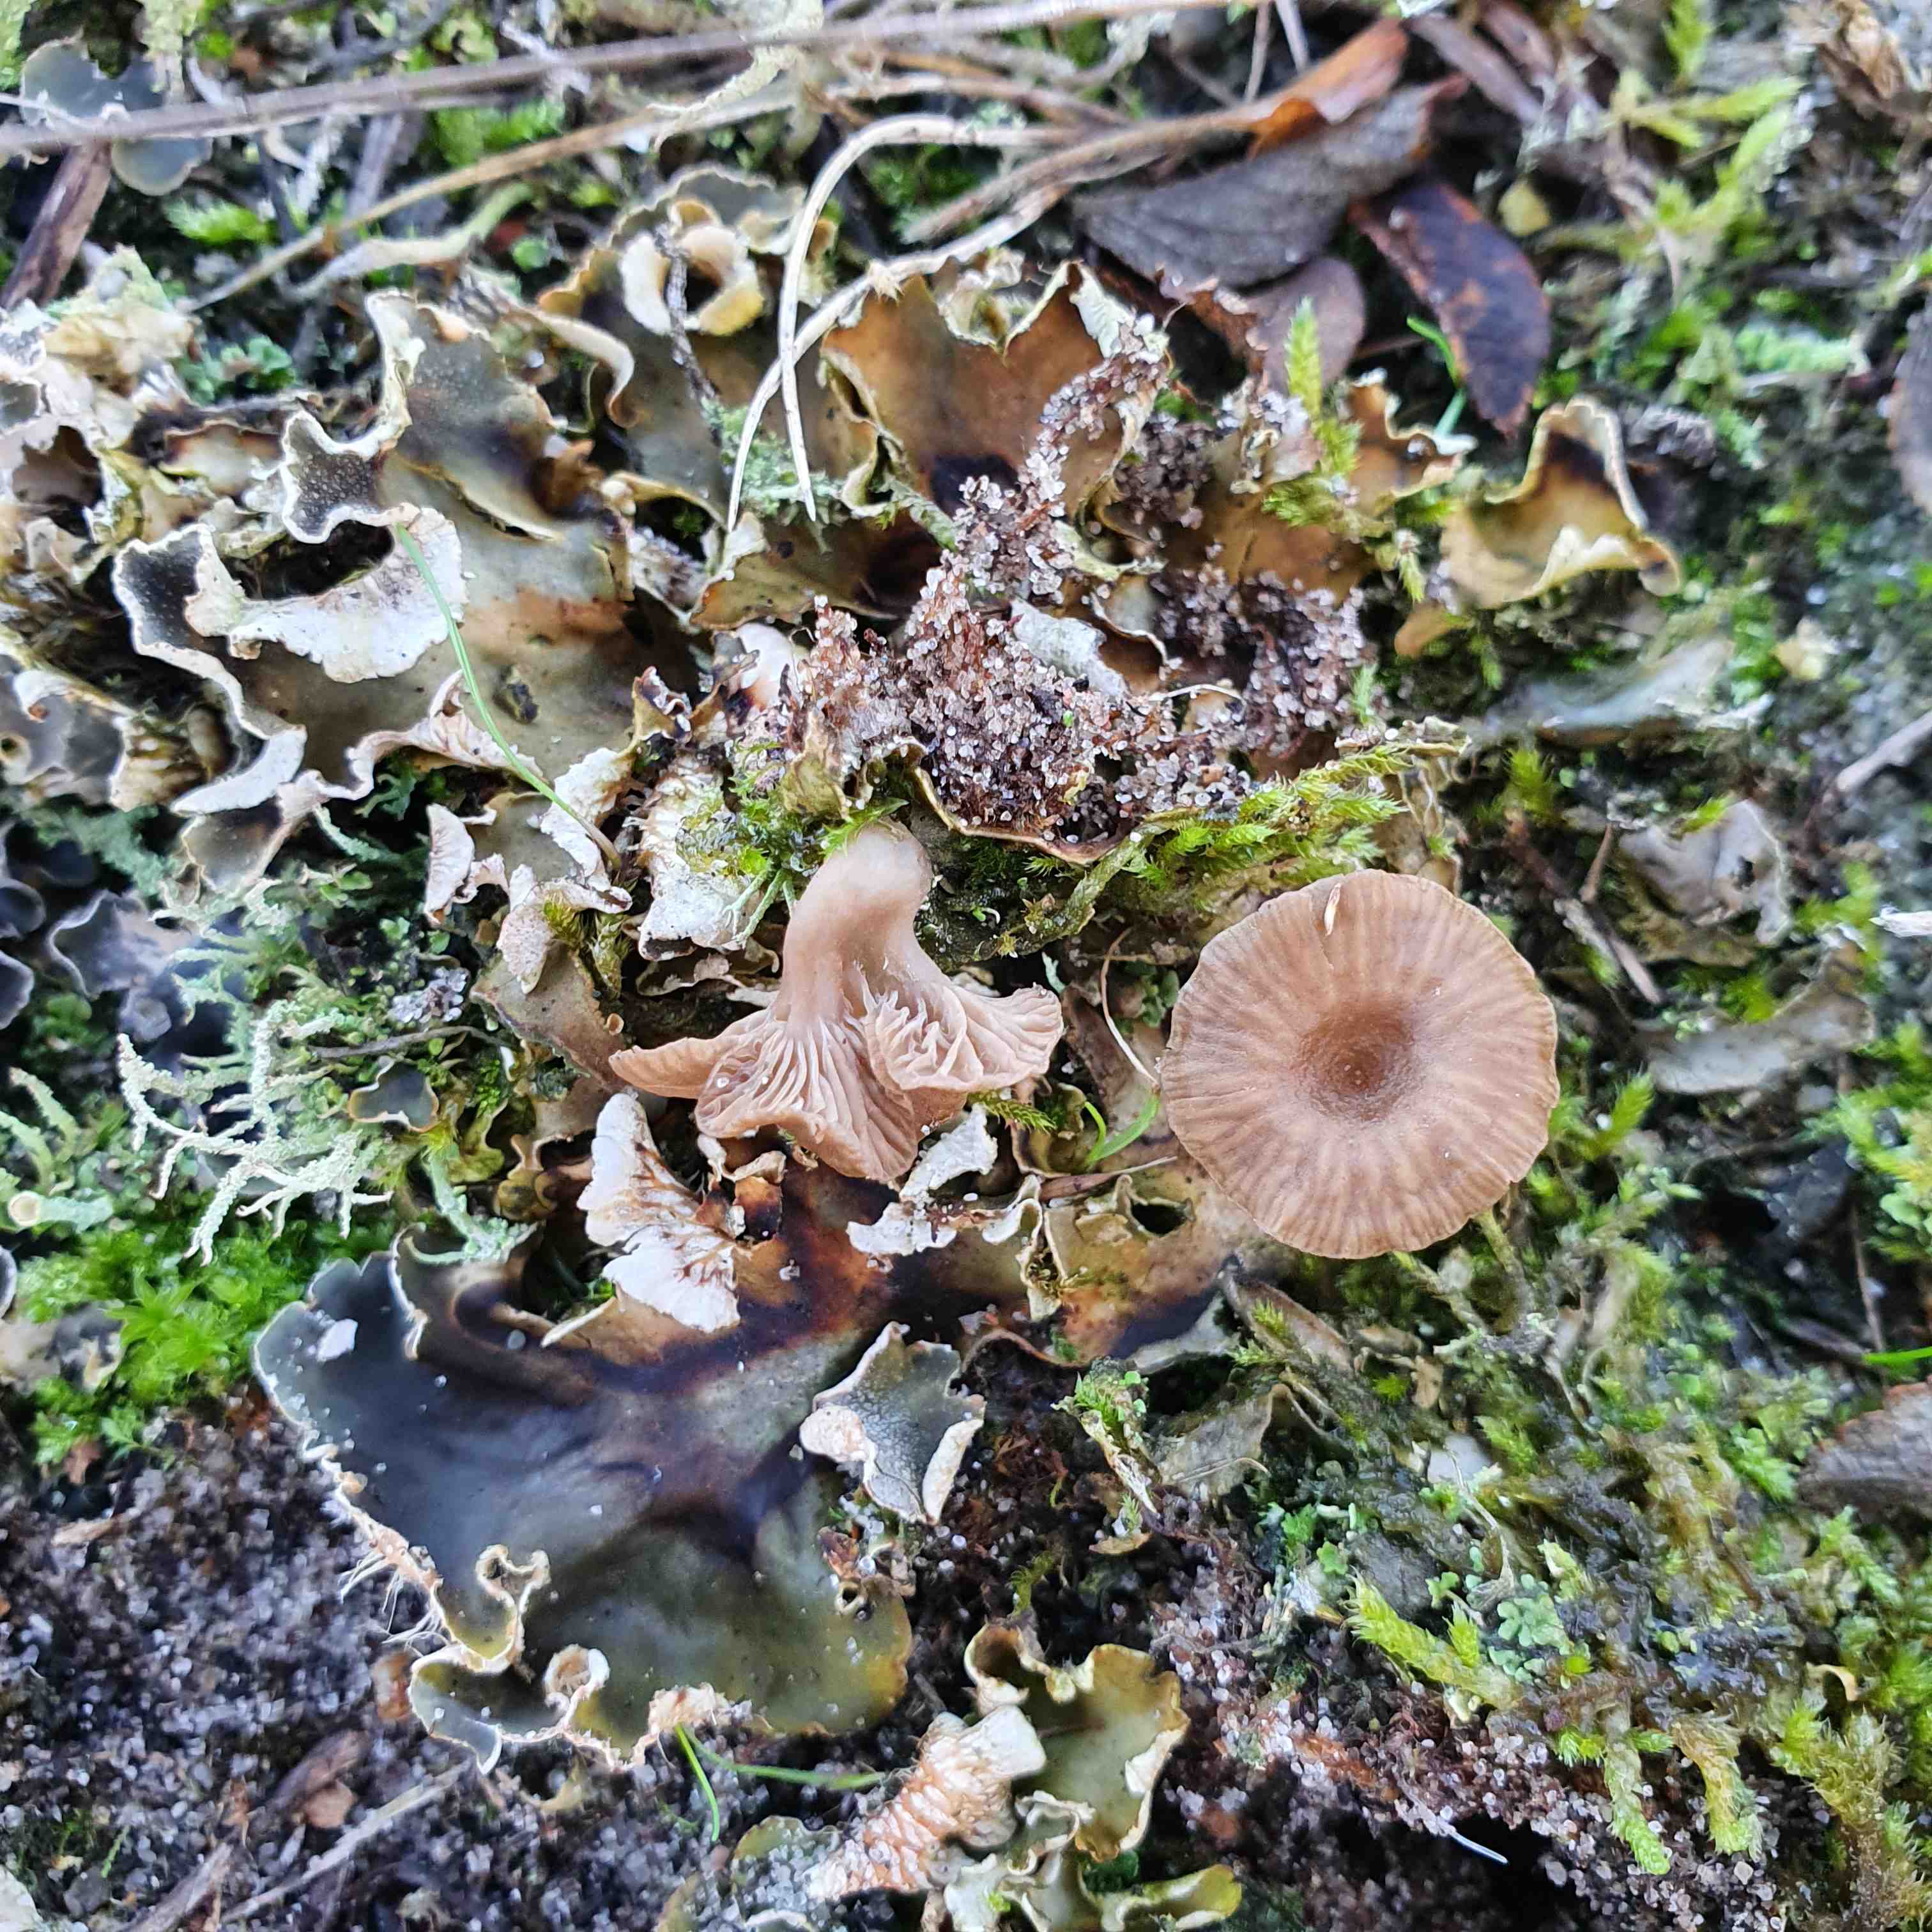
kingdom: Fungi
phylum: Basidiomycota
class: Agaricomycetes
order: Agaricales
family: Hygrophoraceae
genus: Arrhenia
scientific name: Arrhenia peltigerina
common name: skjoldlav-fontænehat
